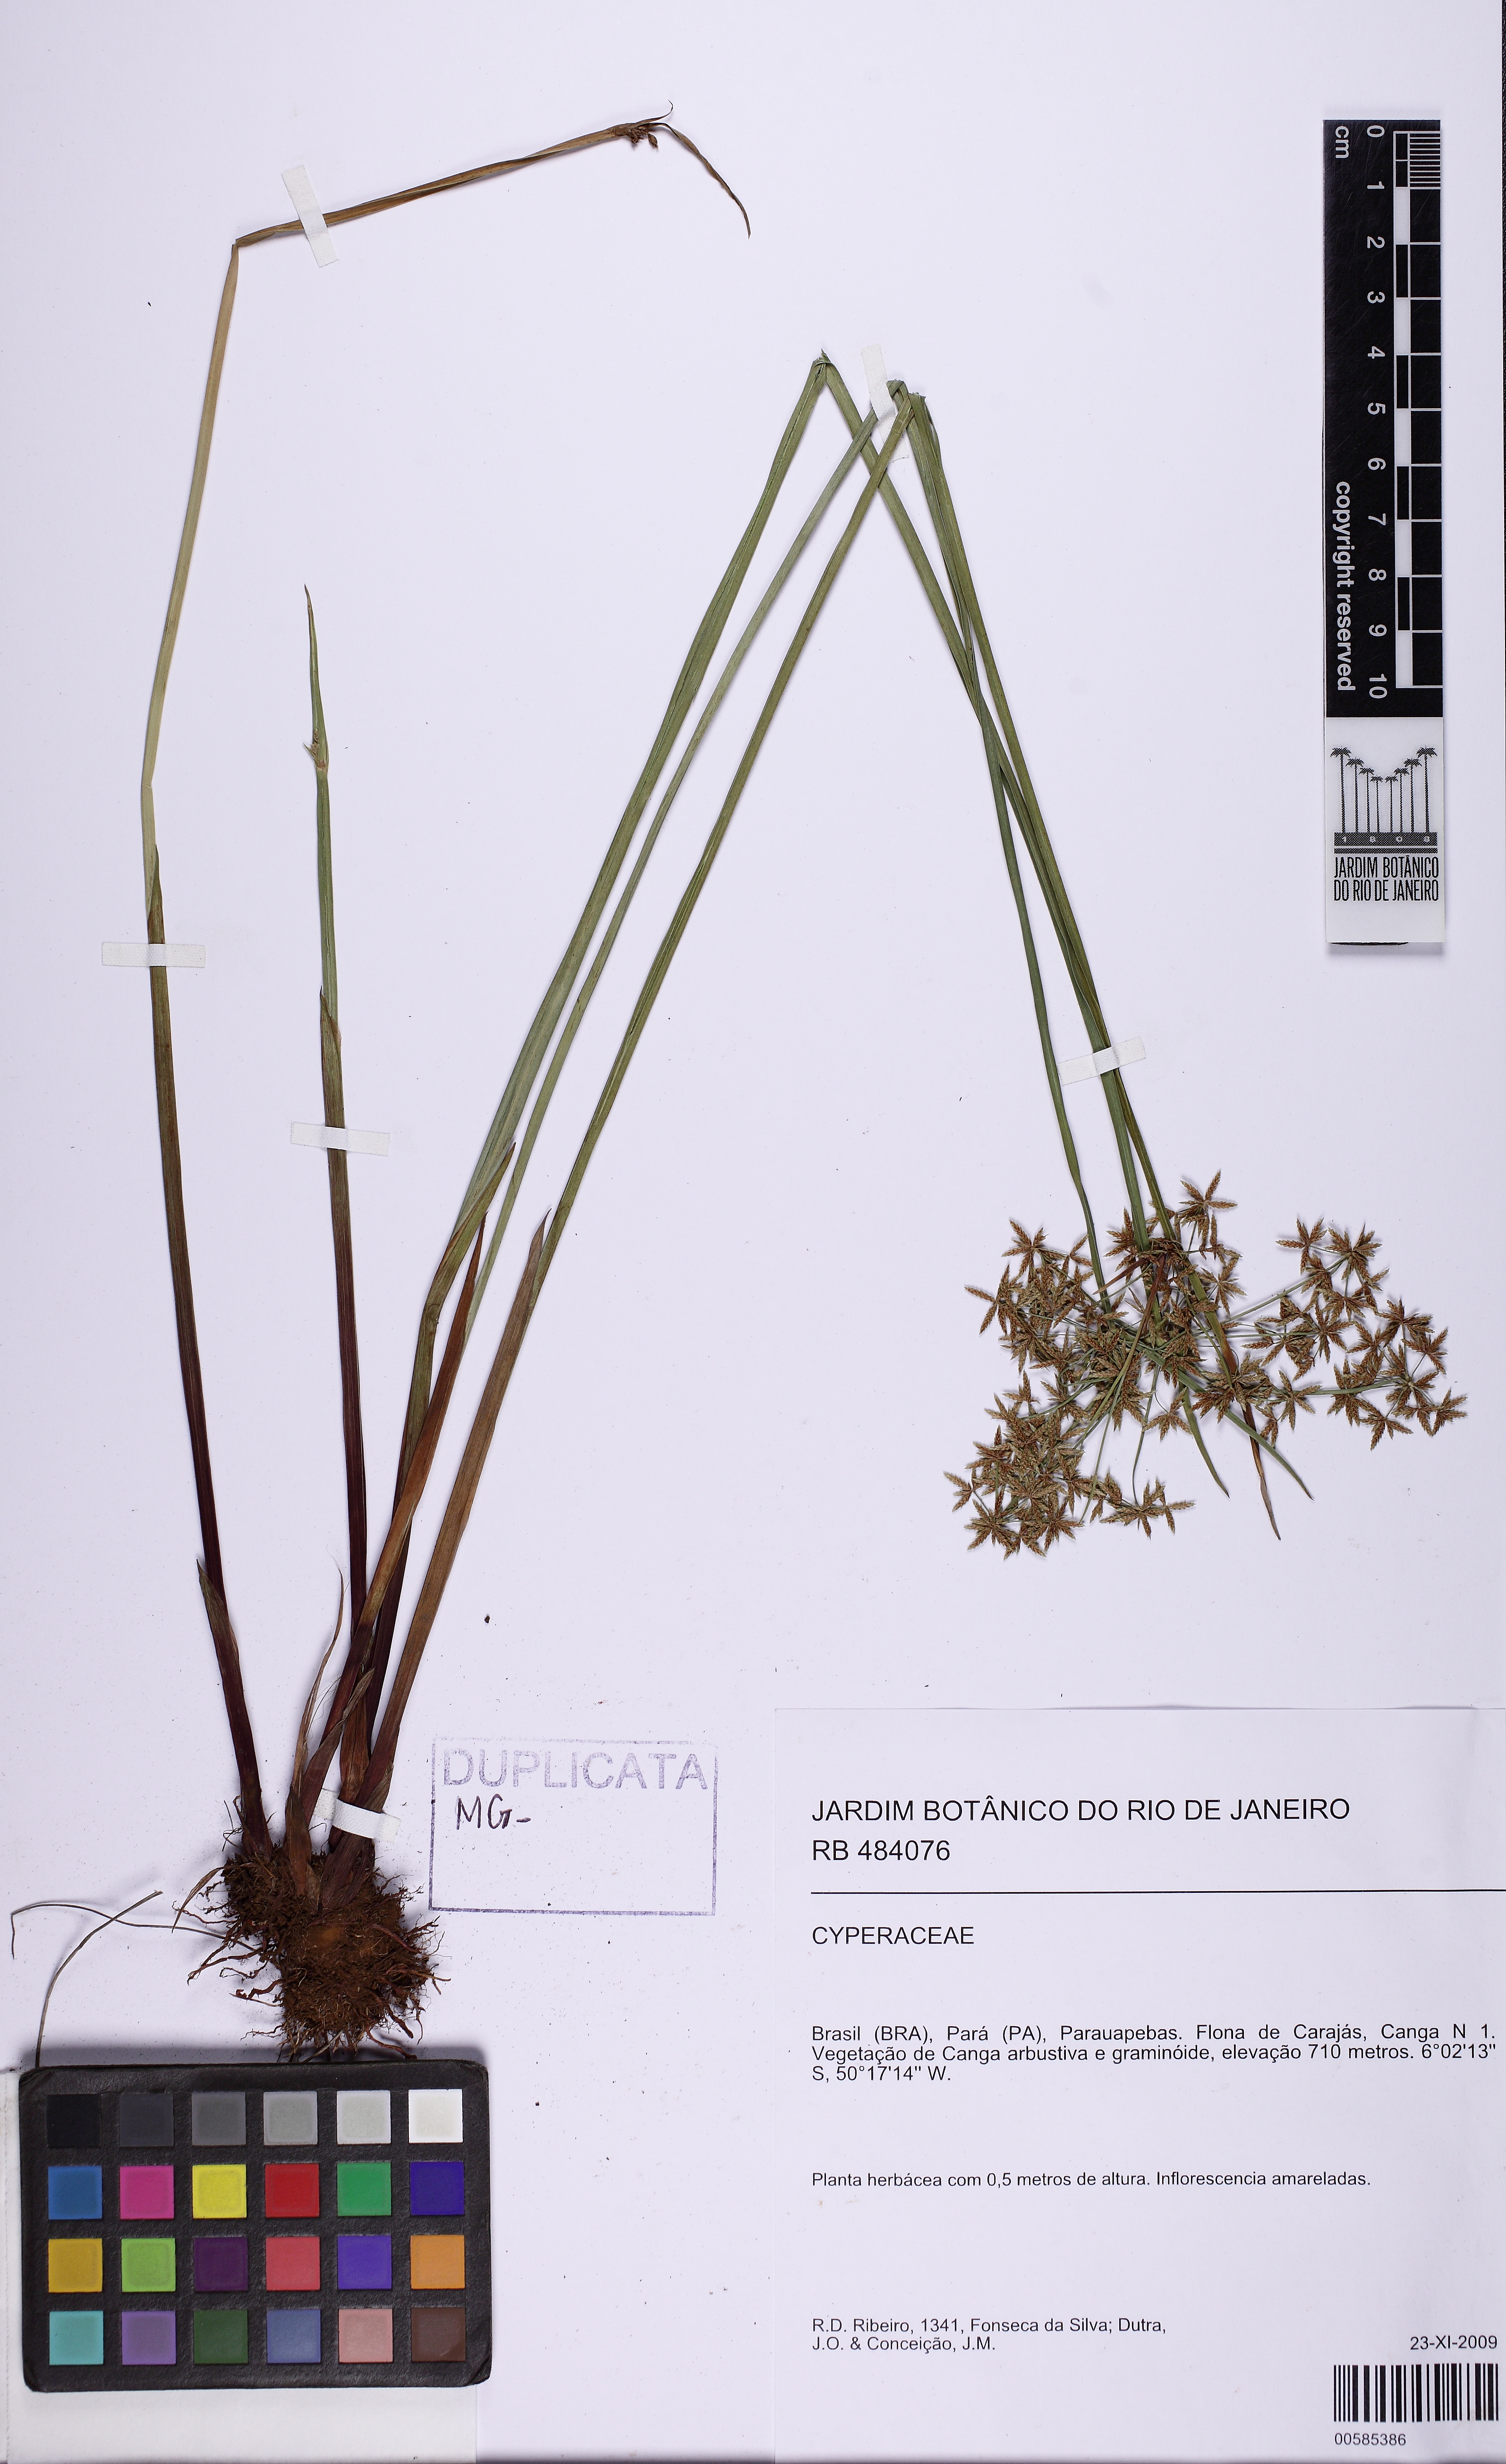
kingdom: Plantae
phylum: Tracheophyta
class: Liliopsida
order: Poales
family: Cyperaceae
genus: Cyperus
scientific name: Cyperus haspan
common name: Haspan flatsedge
